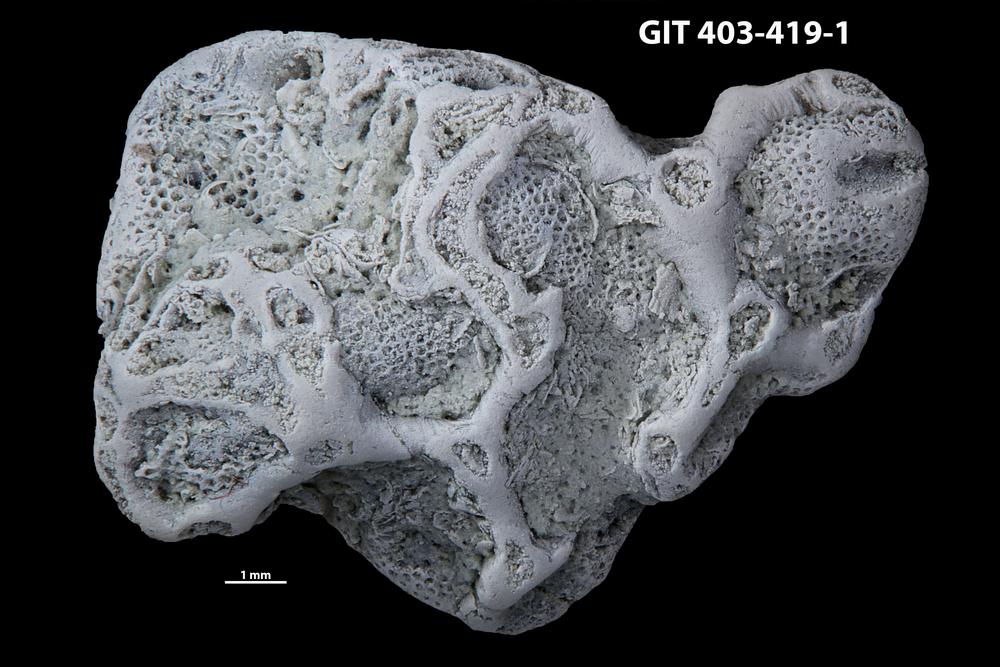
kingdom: Animalia
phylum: Cnidaria
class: Anthozoa
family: Auloporidae
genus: Aulopora
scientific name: Aulopora amica
